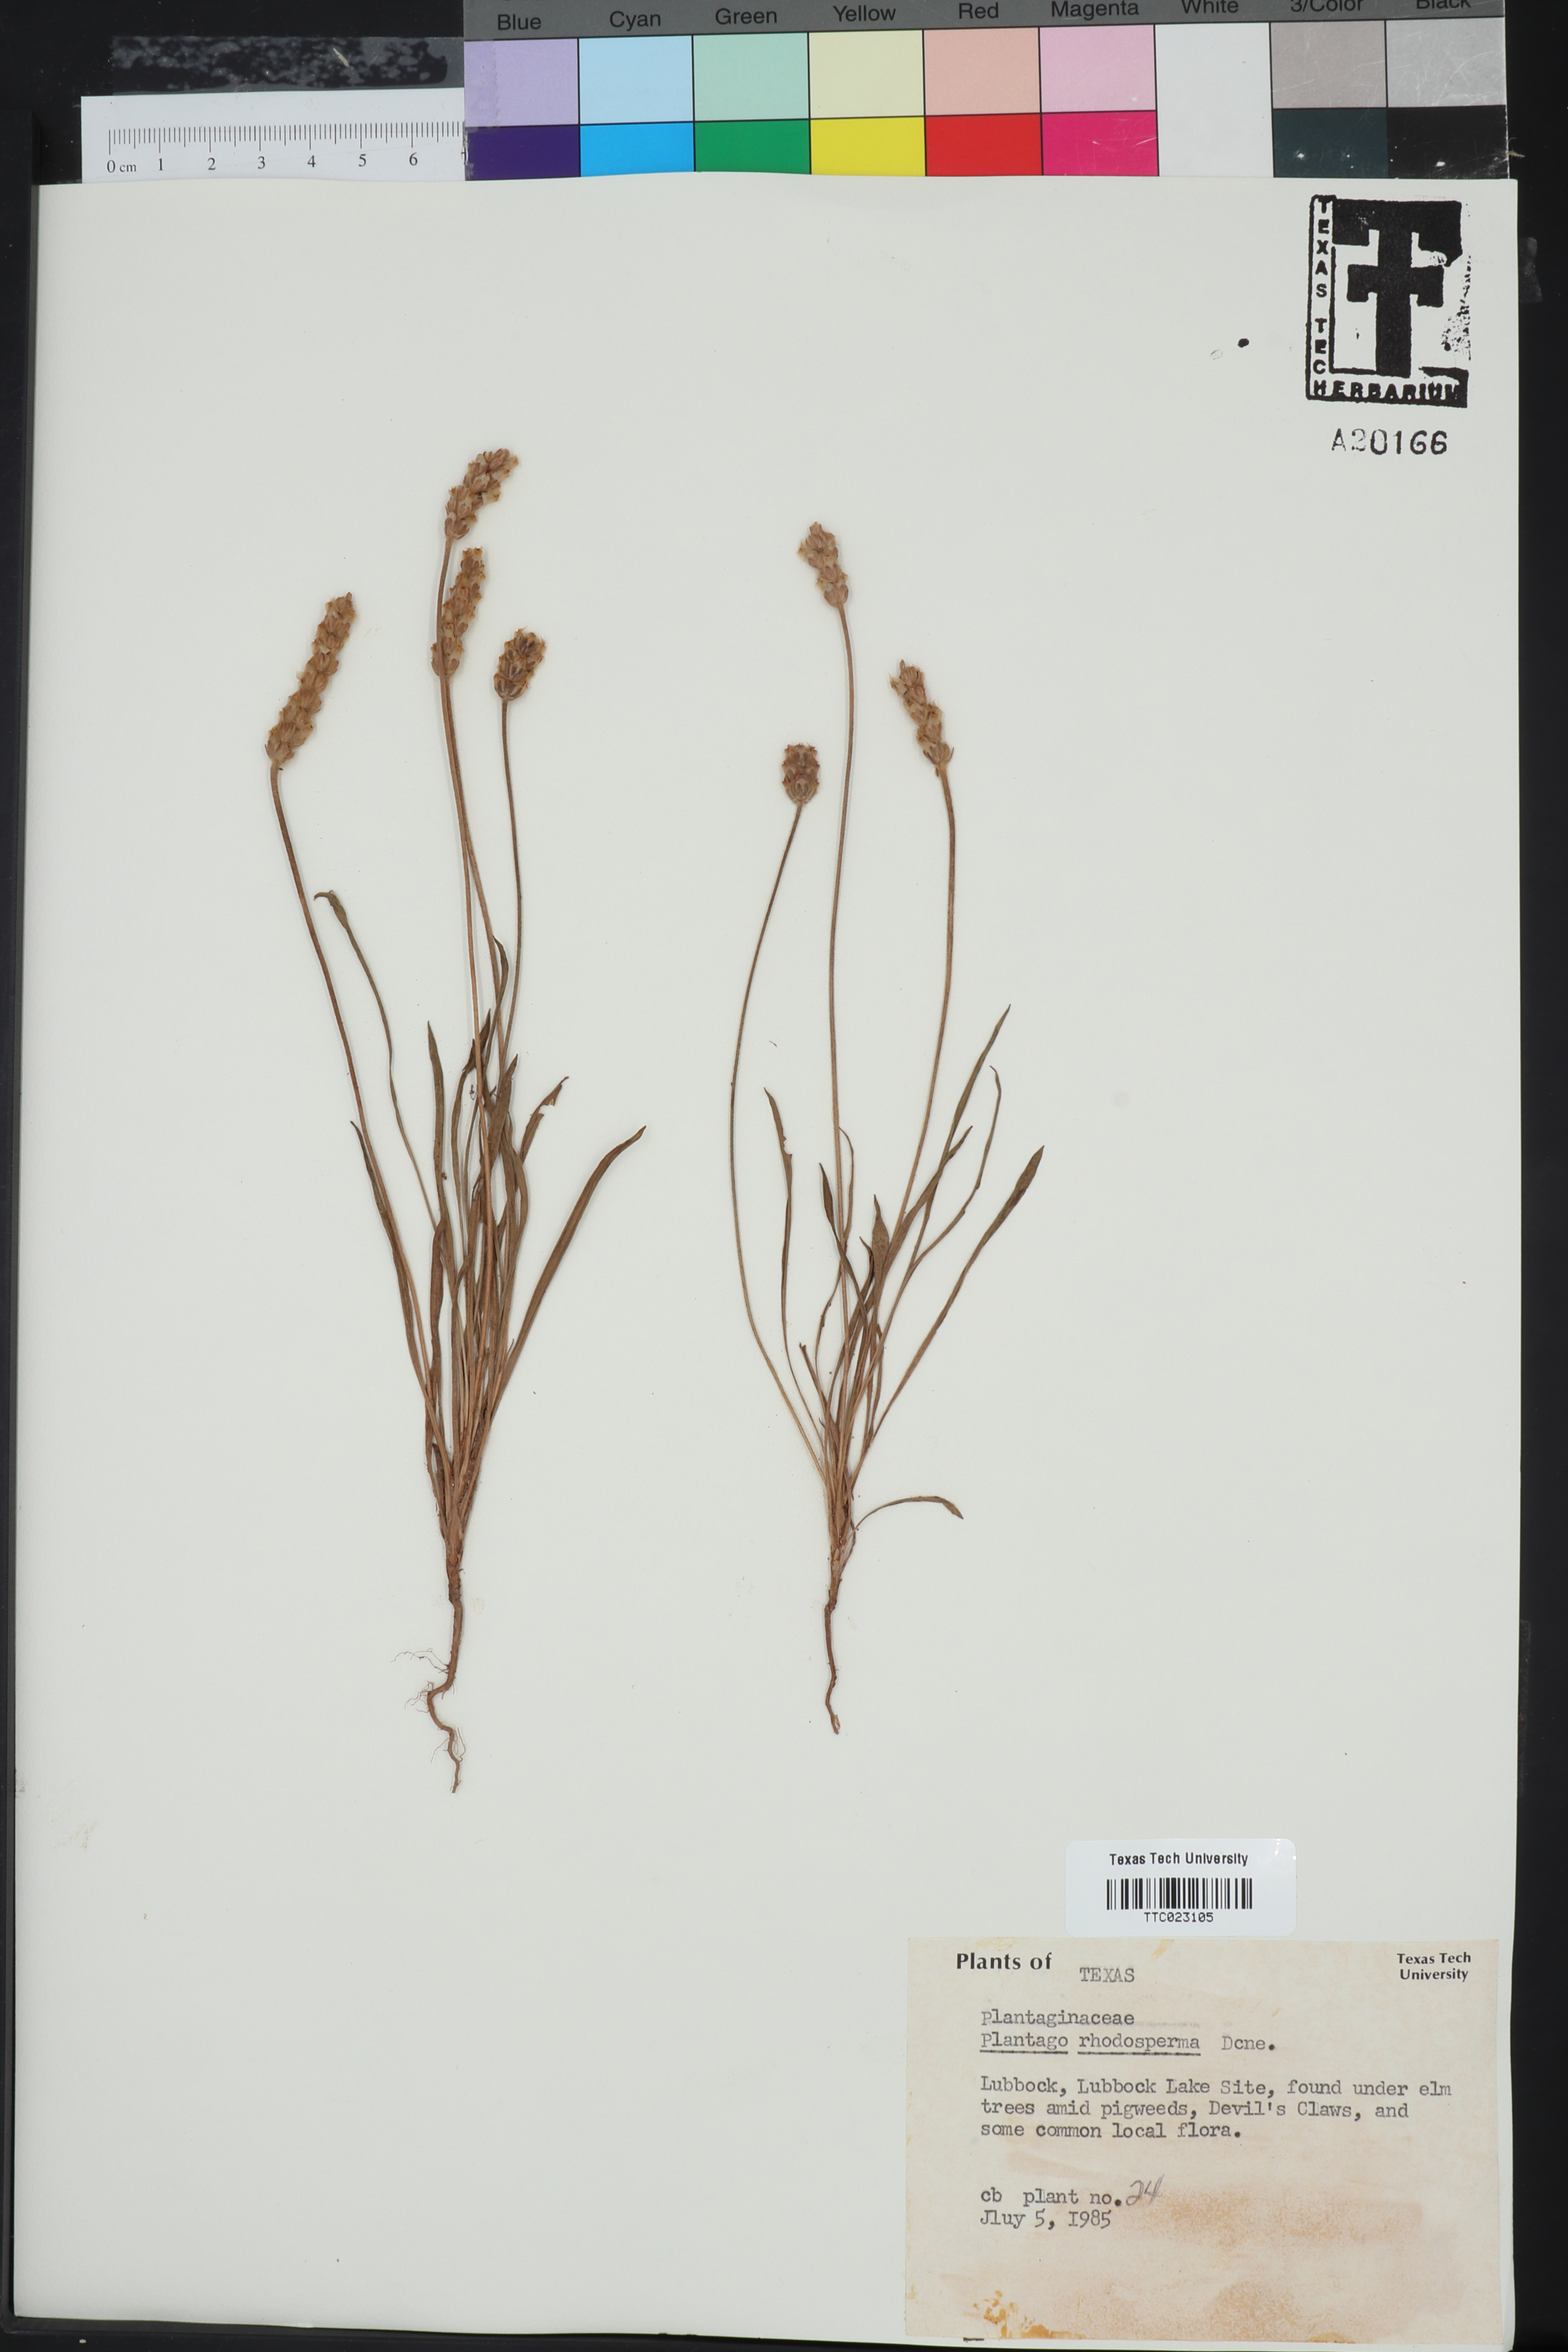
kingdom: Plantae
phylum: Tracheophyta
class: Magnoliopsida
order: Lamiales
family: Plantaginaceae
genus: Plantago
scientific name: Plantago rhodosperma
